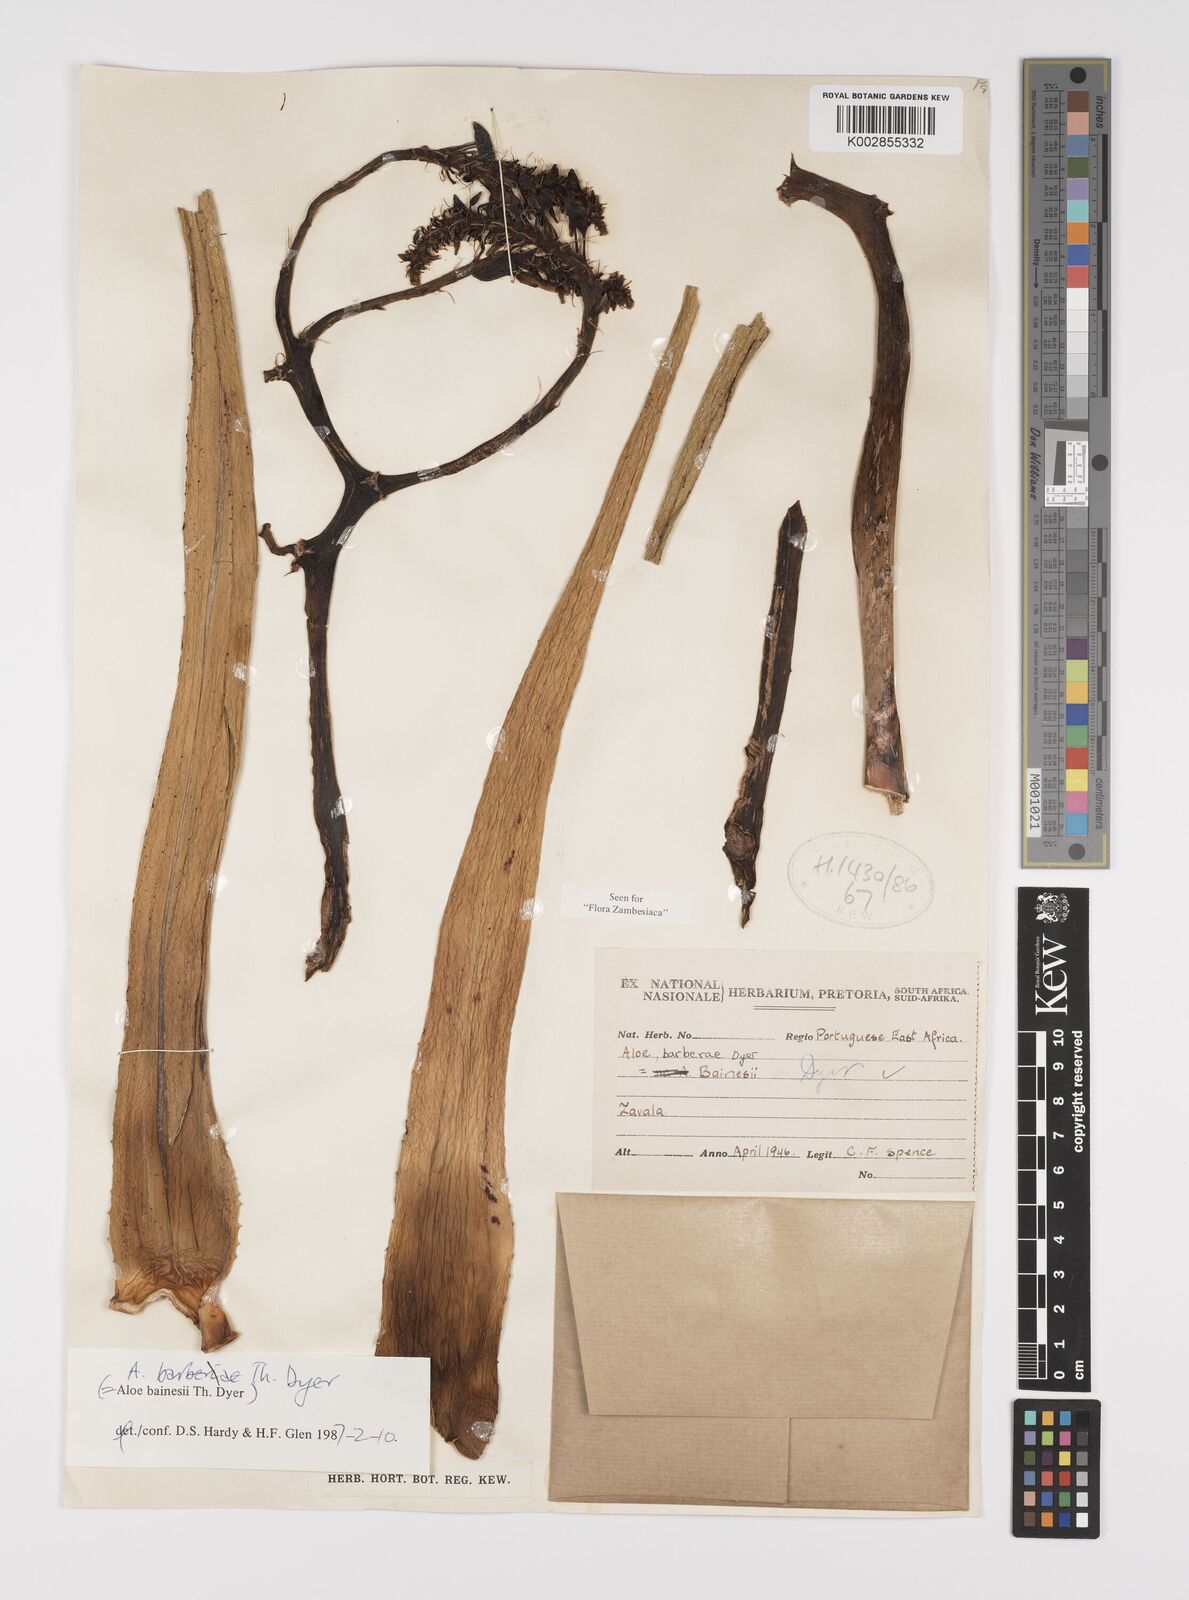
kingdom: Plantae
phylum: Tracheophyta
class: Liliopsida
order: Asparagales
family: Asphodelaceae
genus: Aloidendron
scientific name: Aloidendron barberae
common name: Tree aloe
